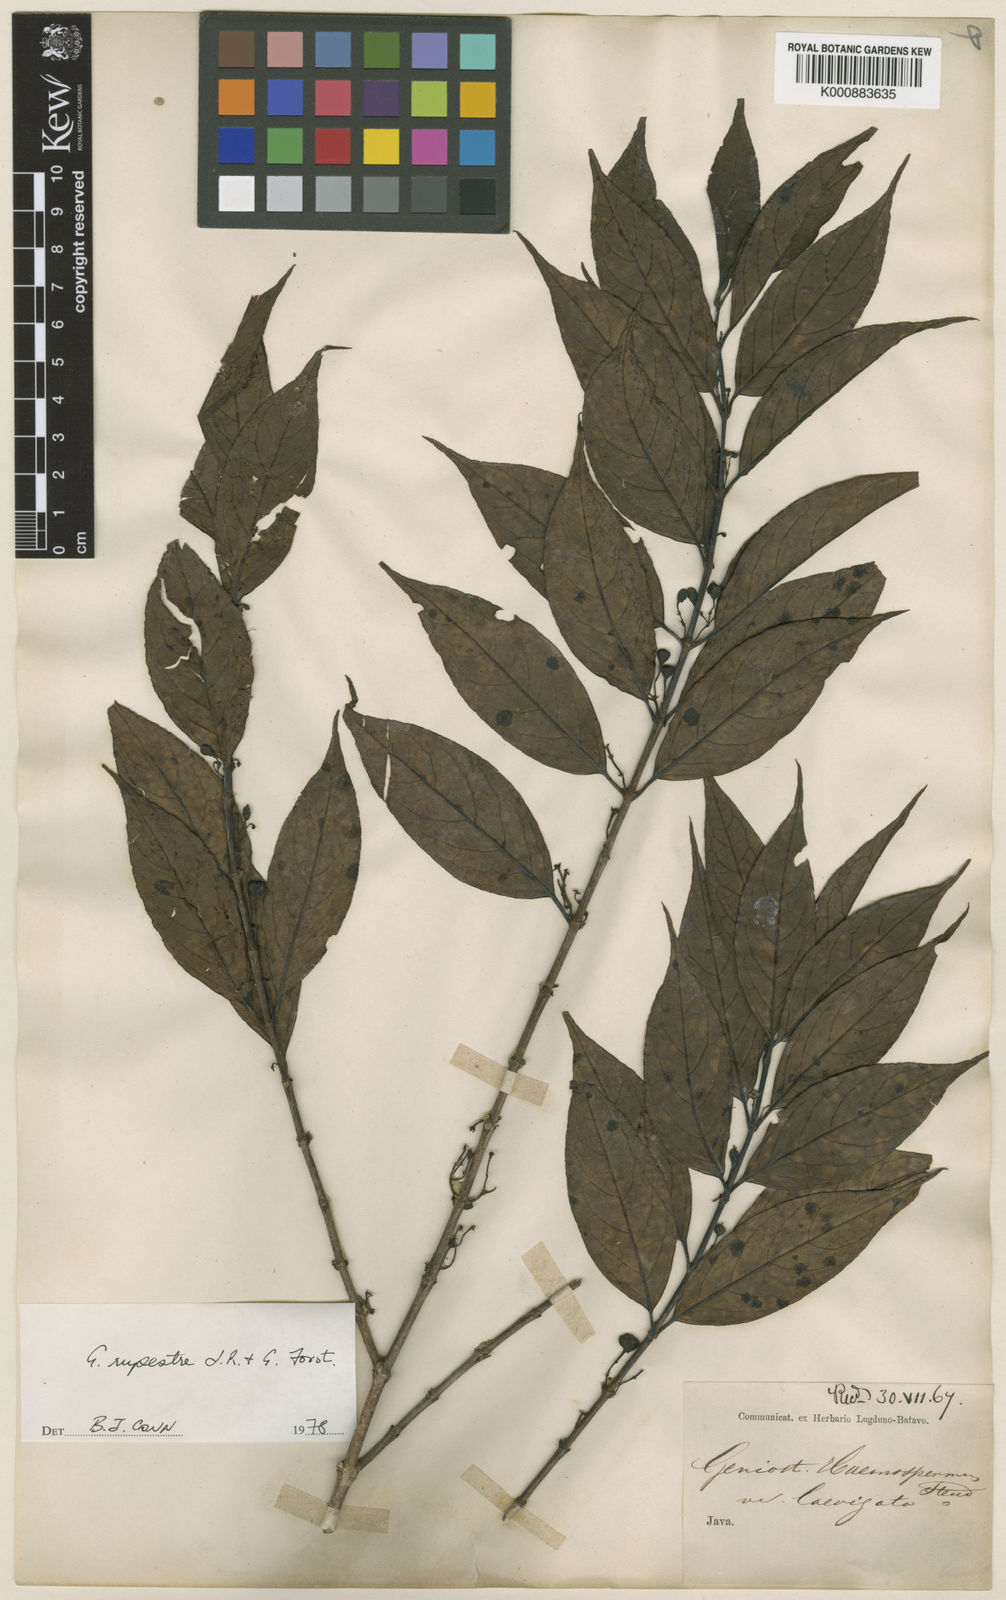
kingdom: Plantae
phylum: Tracheophyta
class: Magnoliopsida
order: Gentianales
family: Loganiaceae
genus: Geniostoma
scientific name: Geniostoma rupestre
